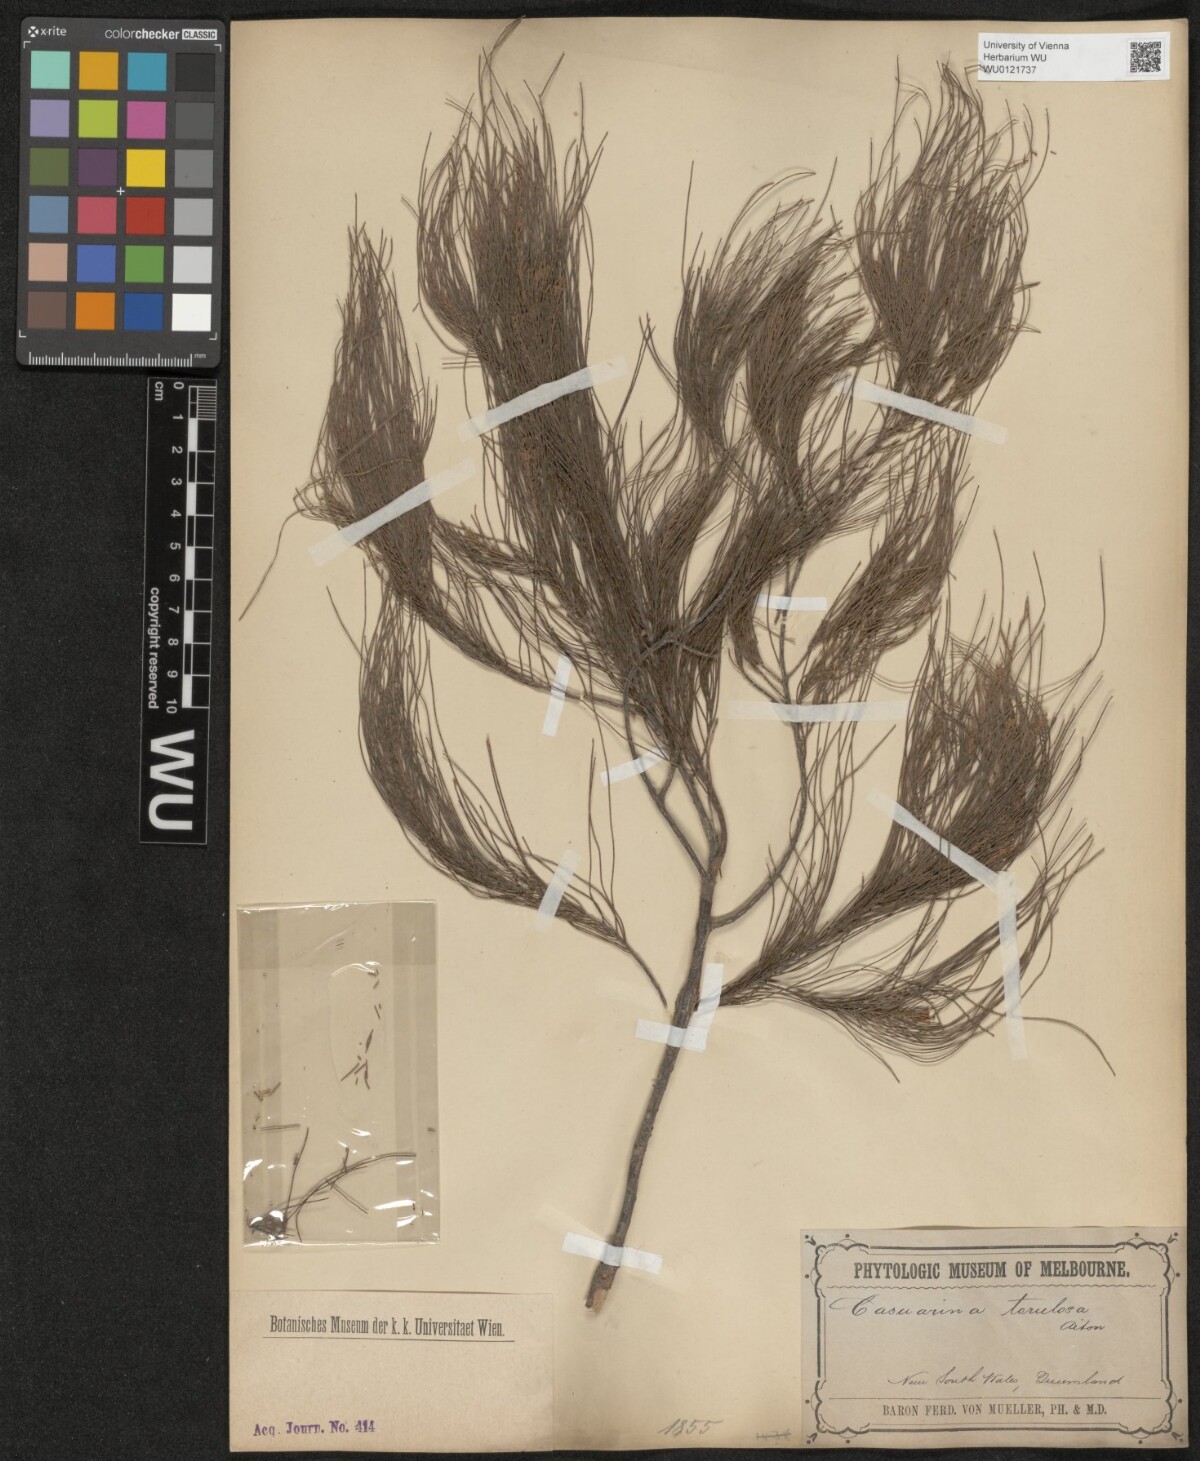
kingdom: Plantae
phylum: Tracheophyta
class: Magnoliopsida
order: Fagales
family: Casuarinaceae
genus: Allocasuarina
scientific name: Allocasuarina torulosa
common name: Forest-oak
